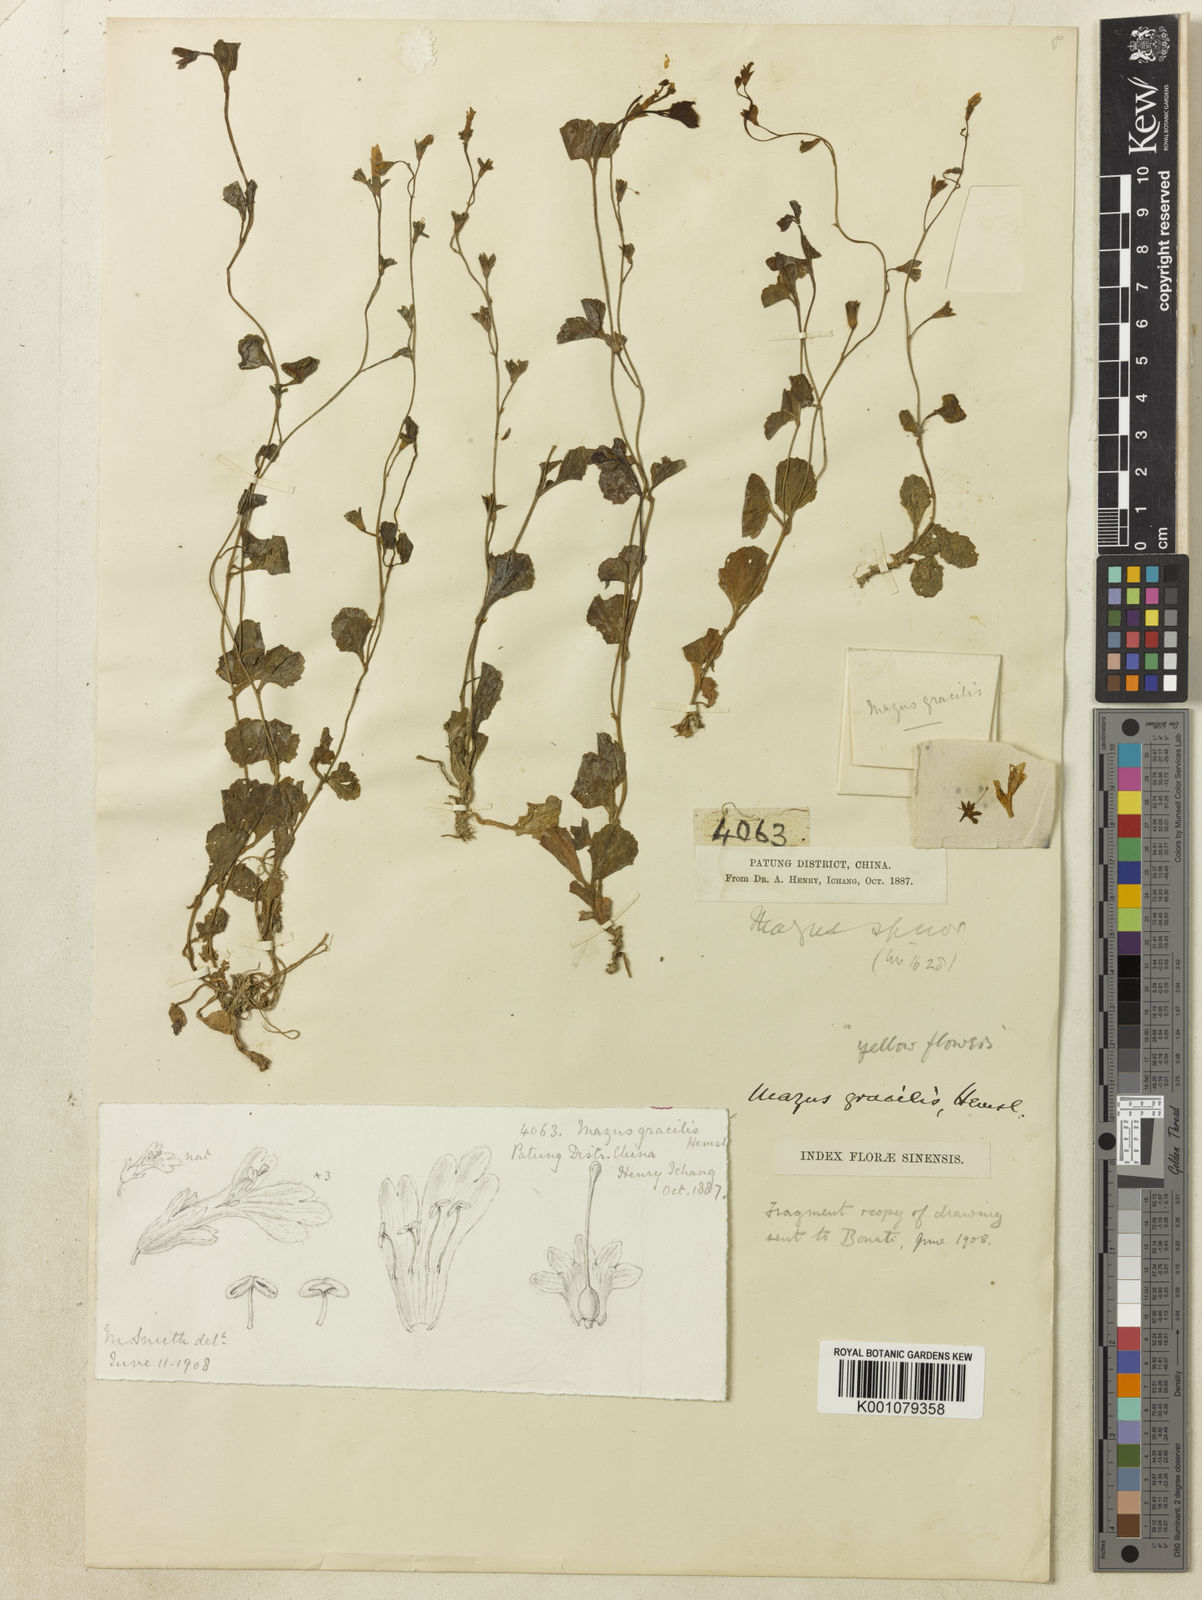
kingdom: Plantae
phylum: Tracheophyta
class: Magnoliopsida
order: Lamiales
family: Mazaceae
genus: Mazus
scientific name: Mazus gracilis
